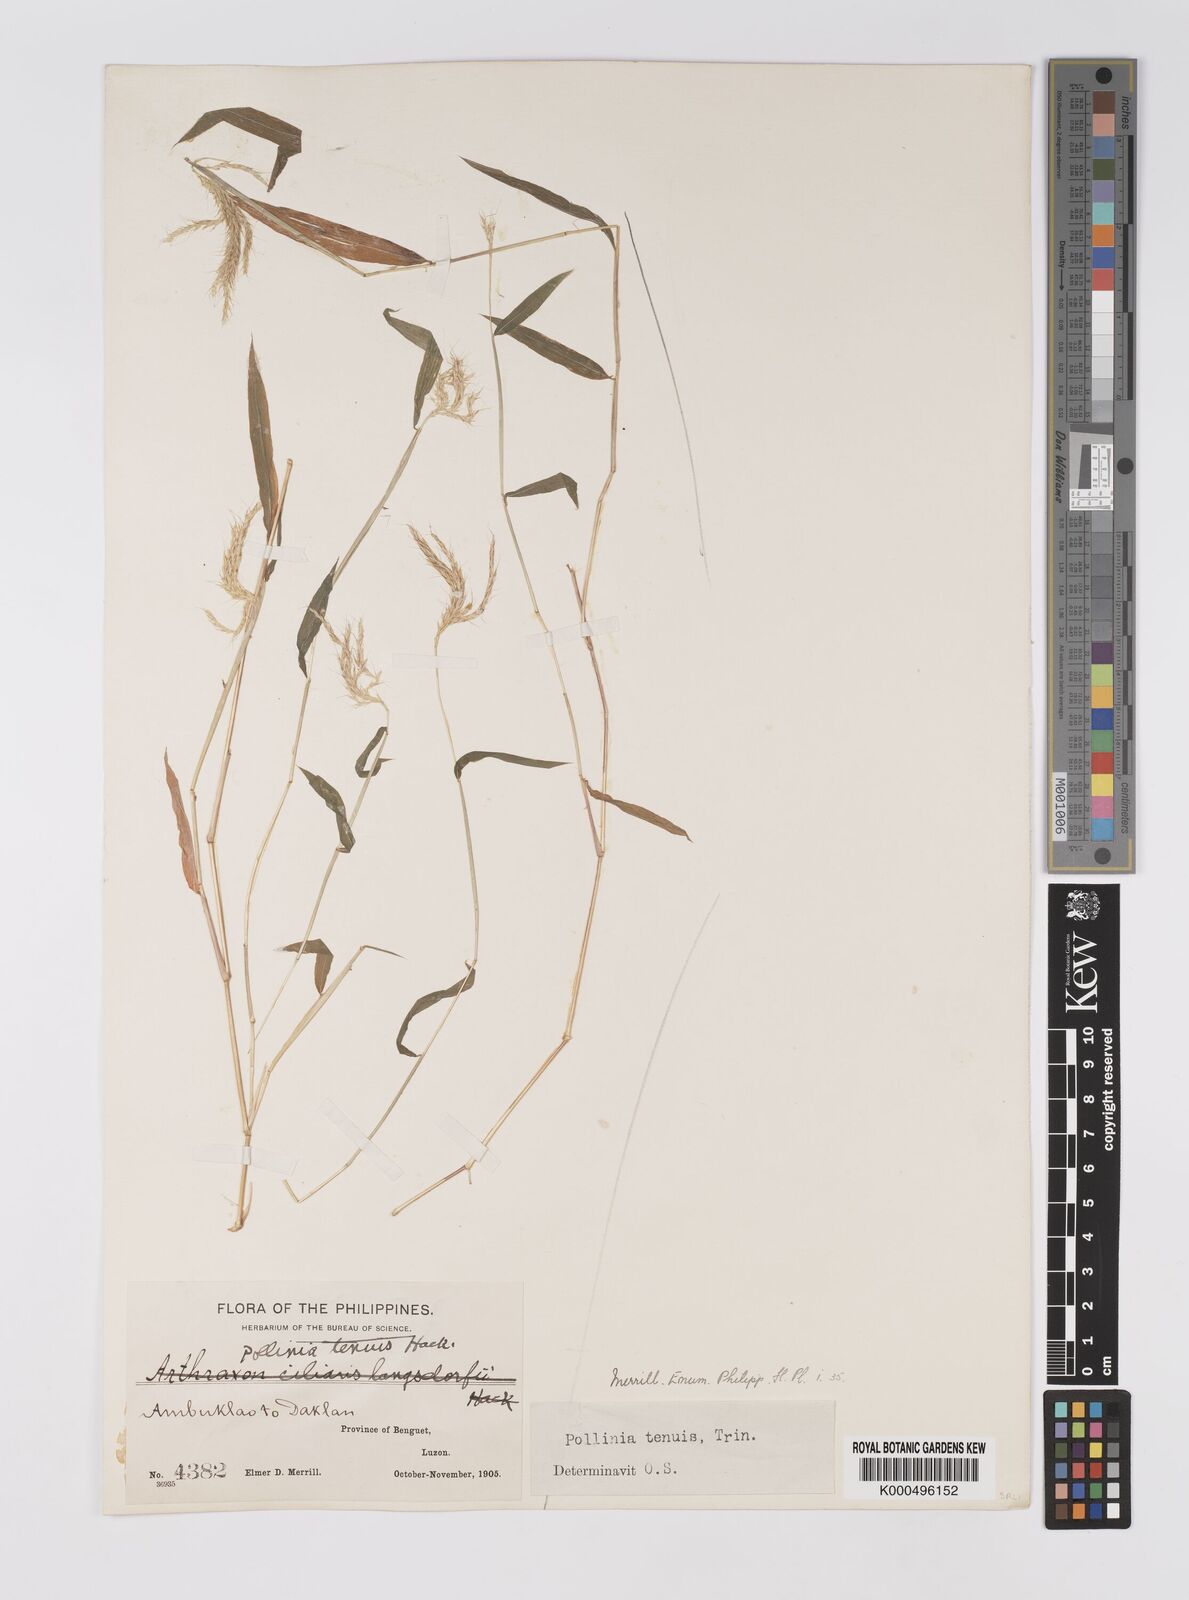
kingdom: Plantae
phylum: Tracheophyta
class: Liliopsida
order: Poales
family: Poaceae
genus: Microstegium
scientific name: Microstegium tenue
